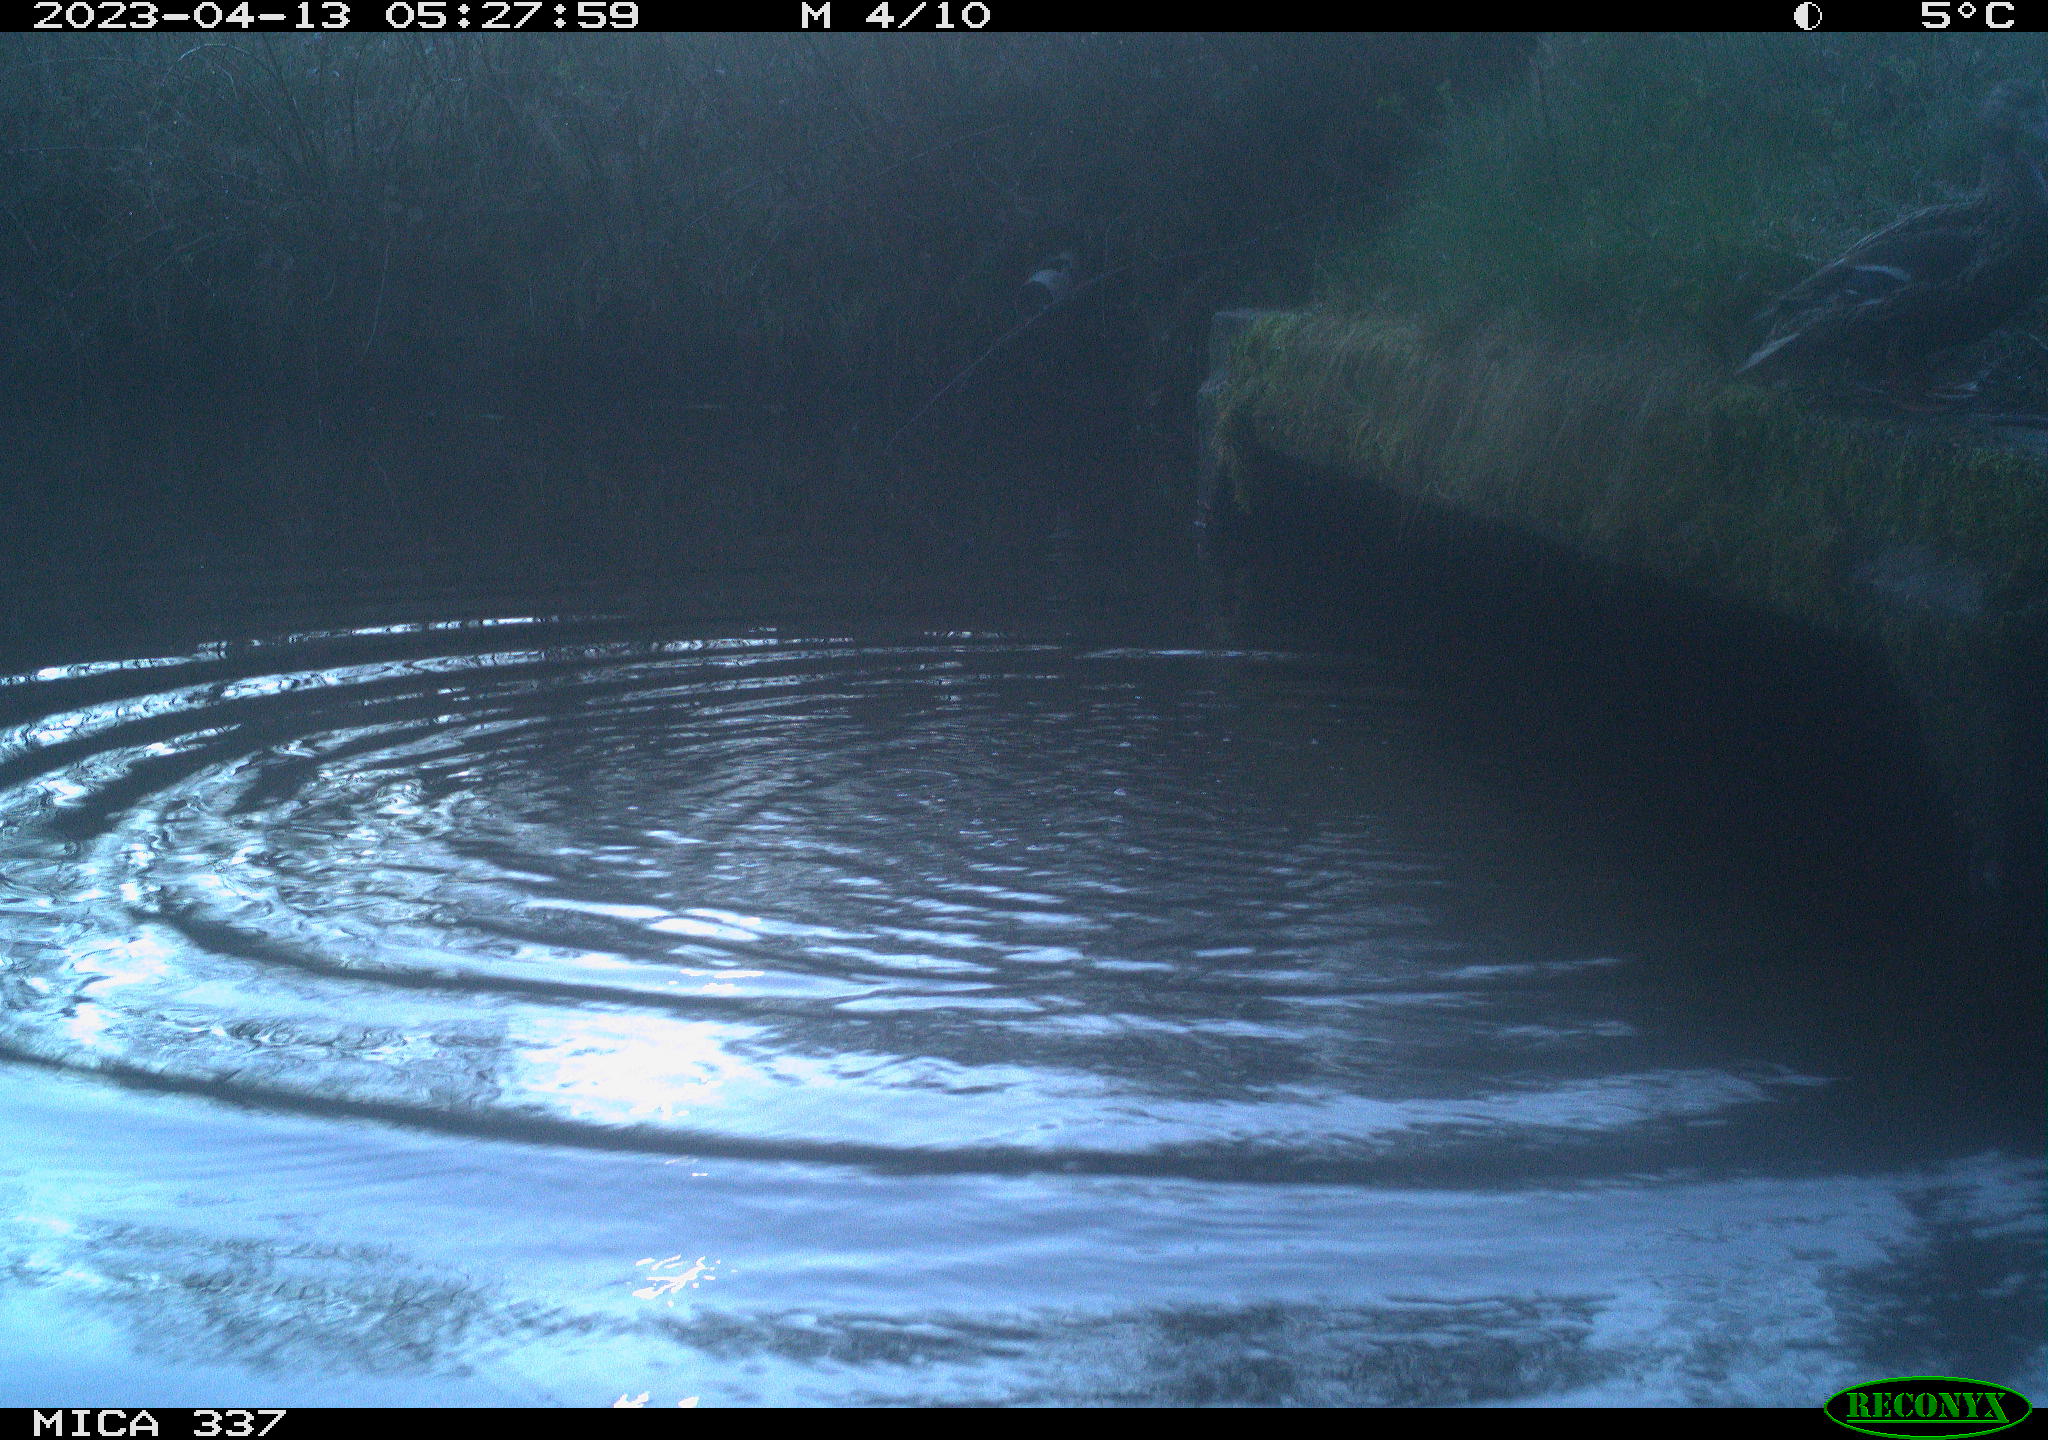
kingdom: Animalia
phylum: Chordata
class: Aves
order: Anseriformes
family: Anatidae
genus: Anas
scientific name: Anas platyrhynchos
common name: Mallard
